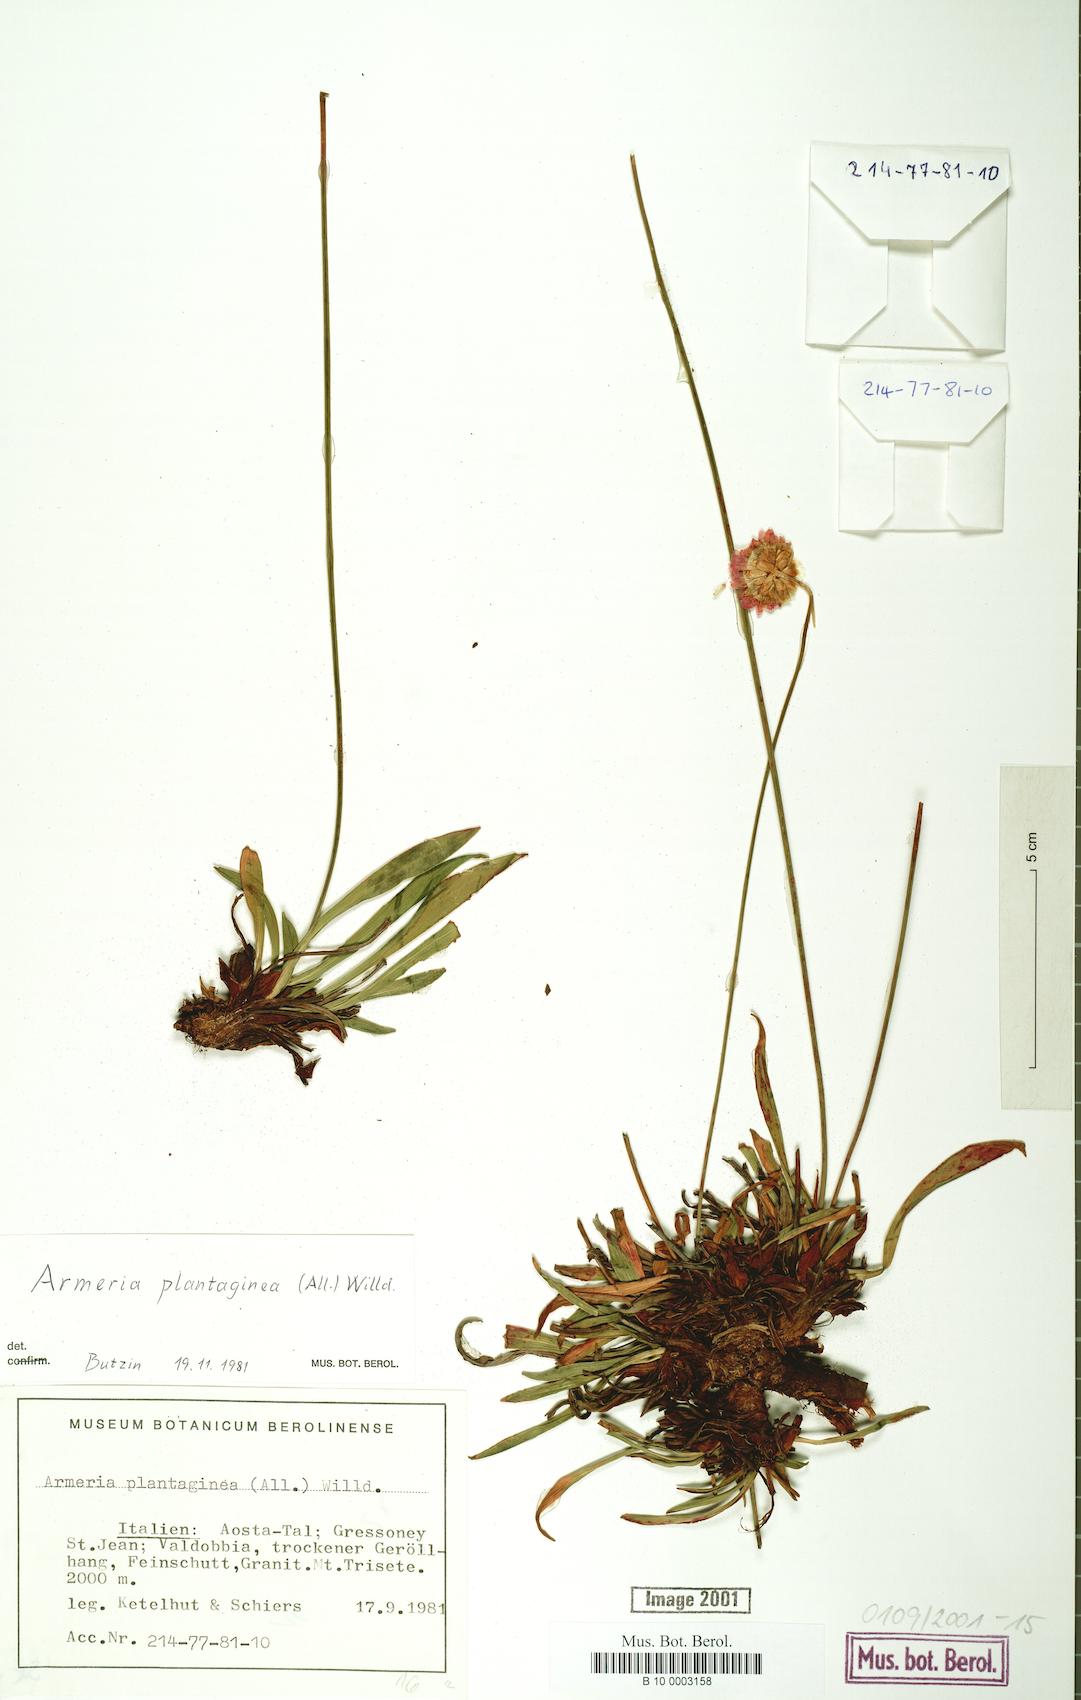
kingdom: Plantae
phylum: Tracheophyta
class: Magnoliopsida
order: Caryophyllales
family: Plumbaginaceae
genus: Armeria
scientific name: Armeria alliacea
